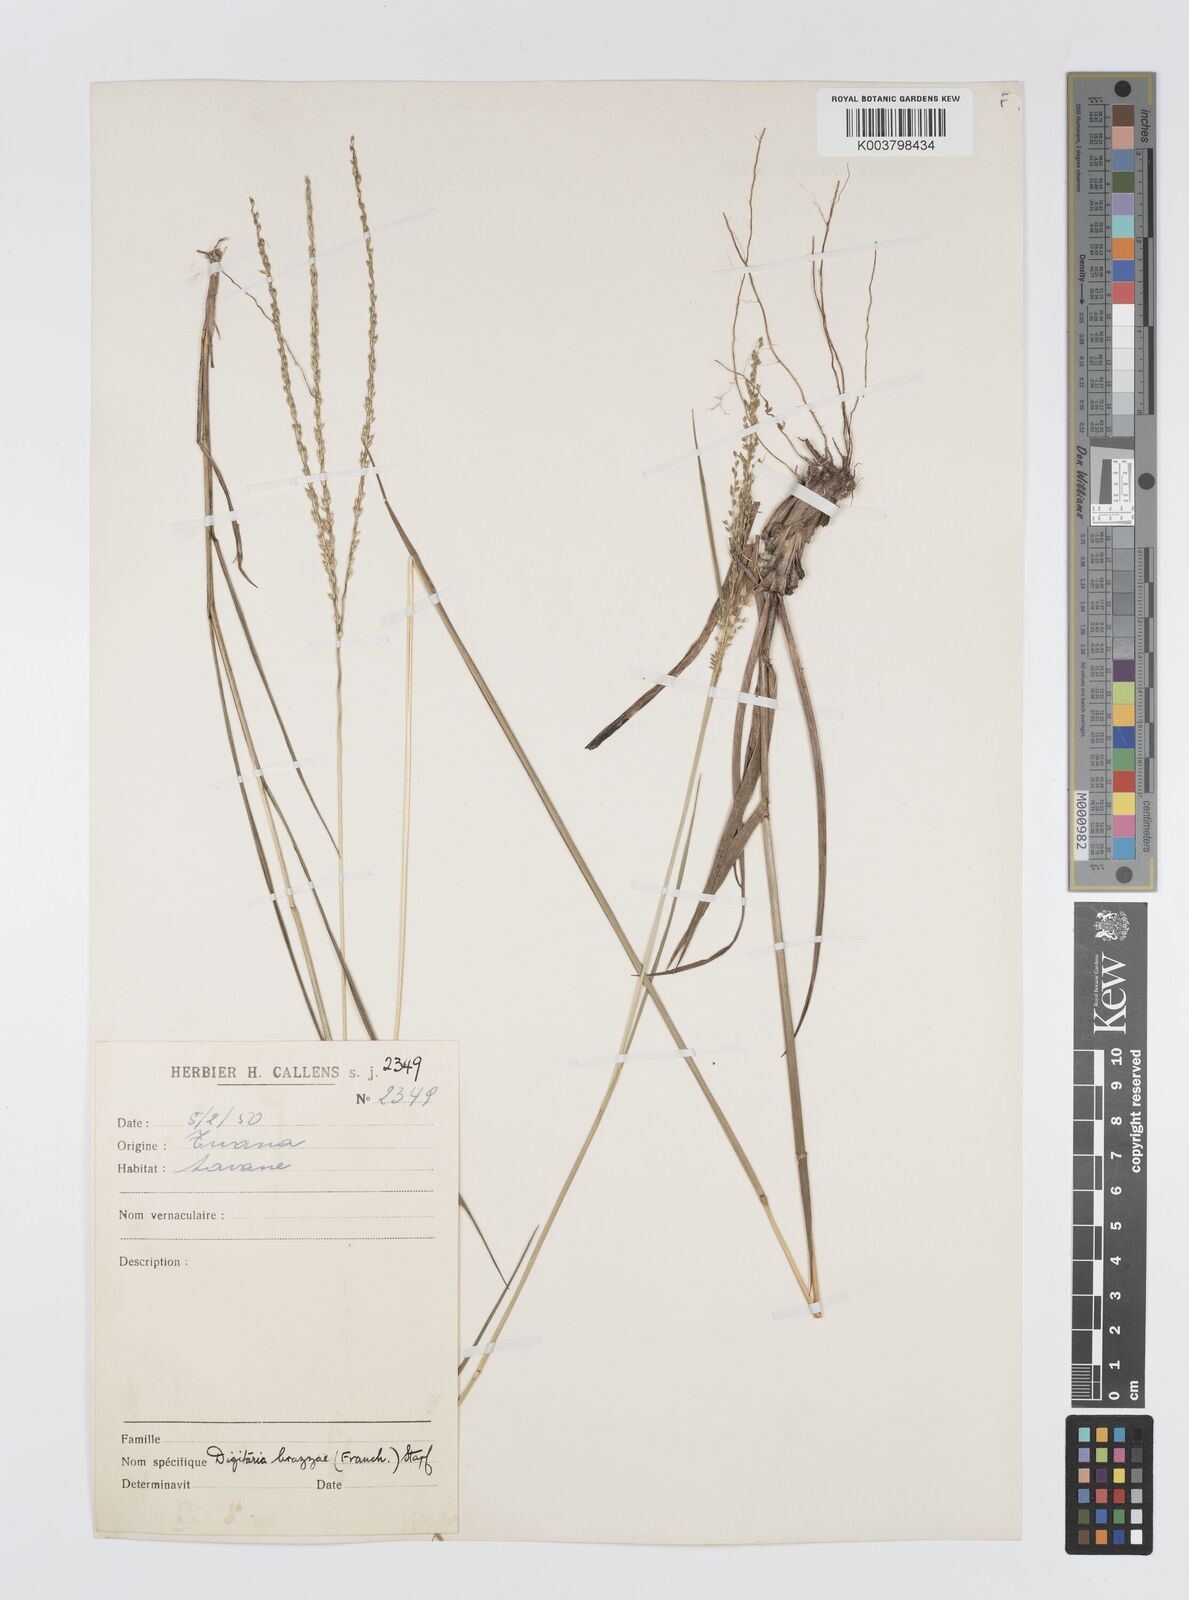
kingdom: Plantae
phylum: Tracheophyta
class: Liliopsida
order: Poales
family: Poaceae
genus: Digitaria
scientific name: Digitaria brazzae
